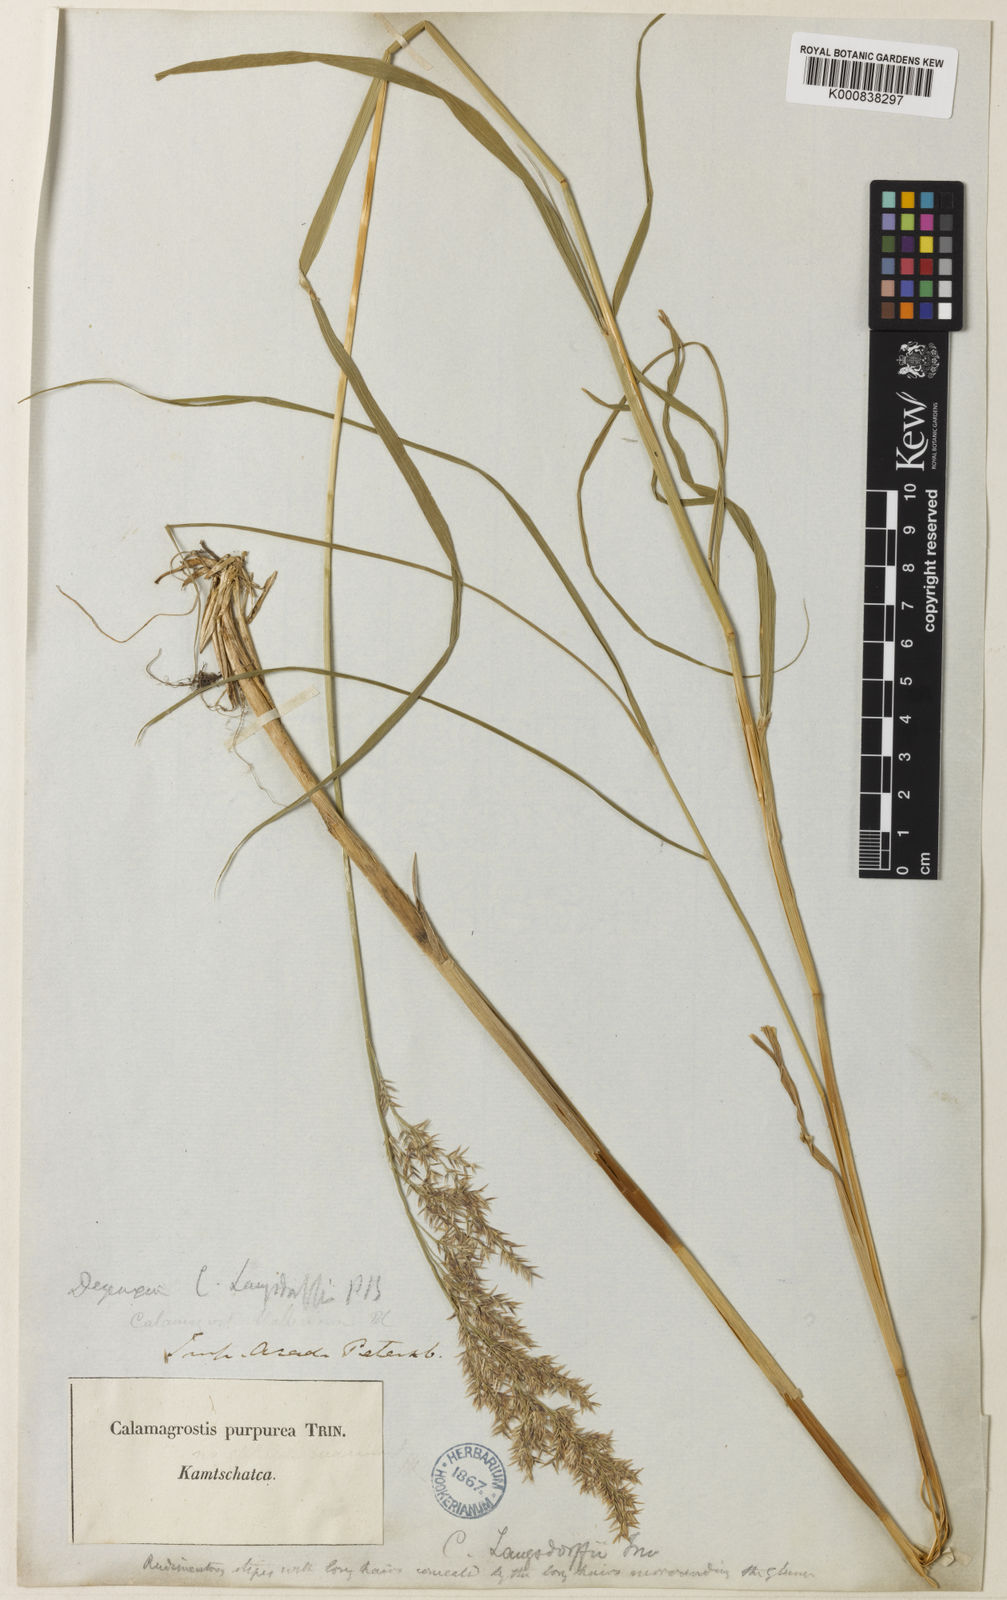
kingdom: Plantae
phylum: Tracheophyta
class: Liliopsida
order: Poales
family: Poaceae
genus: Calamagrostis
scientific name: Calamagrostis purpurea
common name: Scandinavian small-reed
